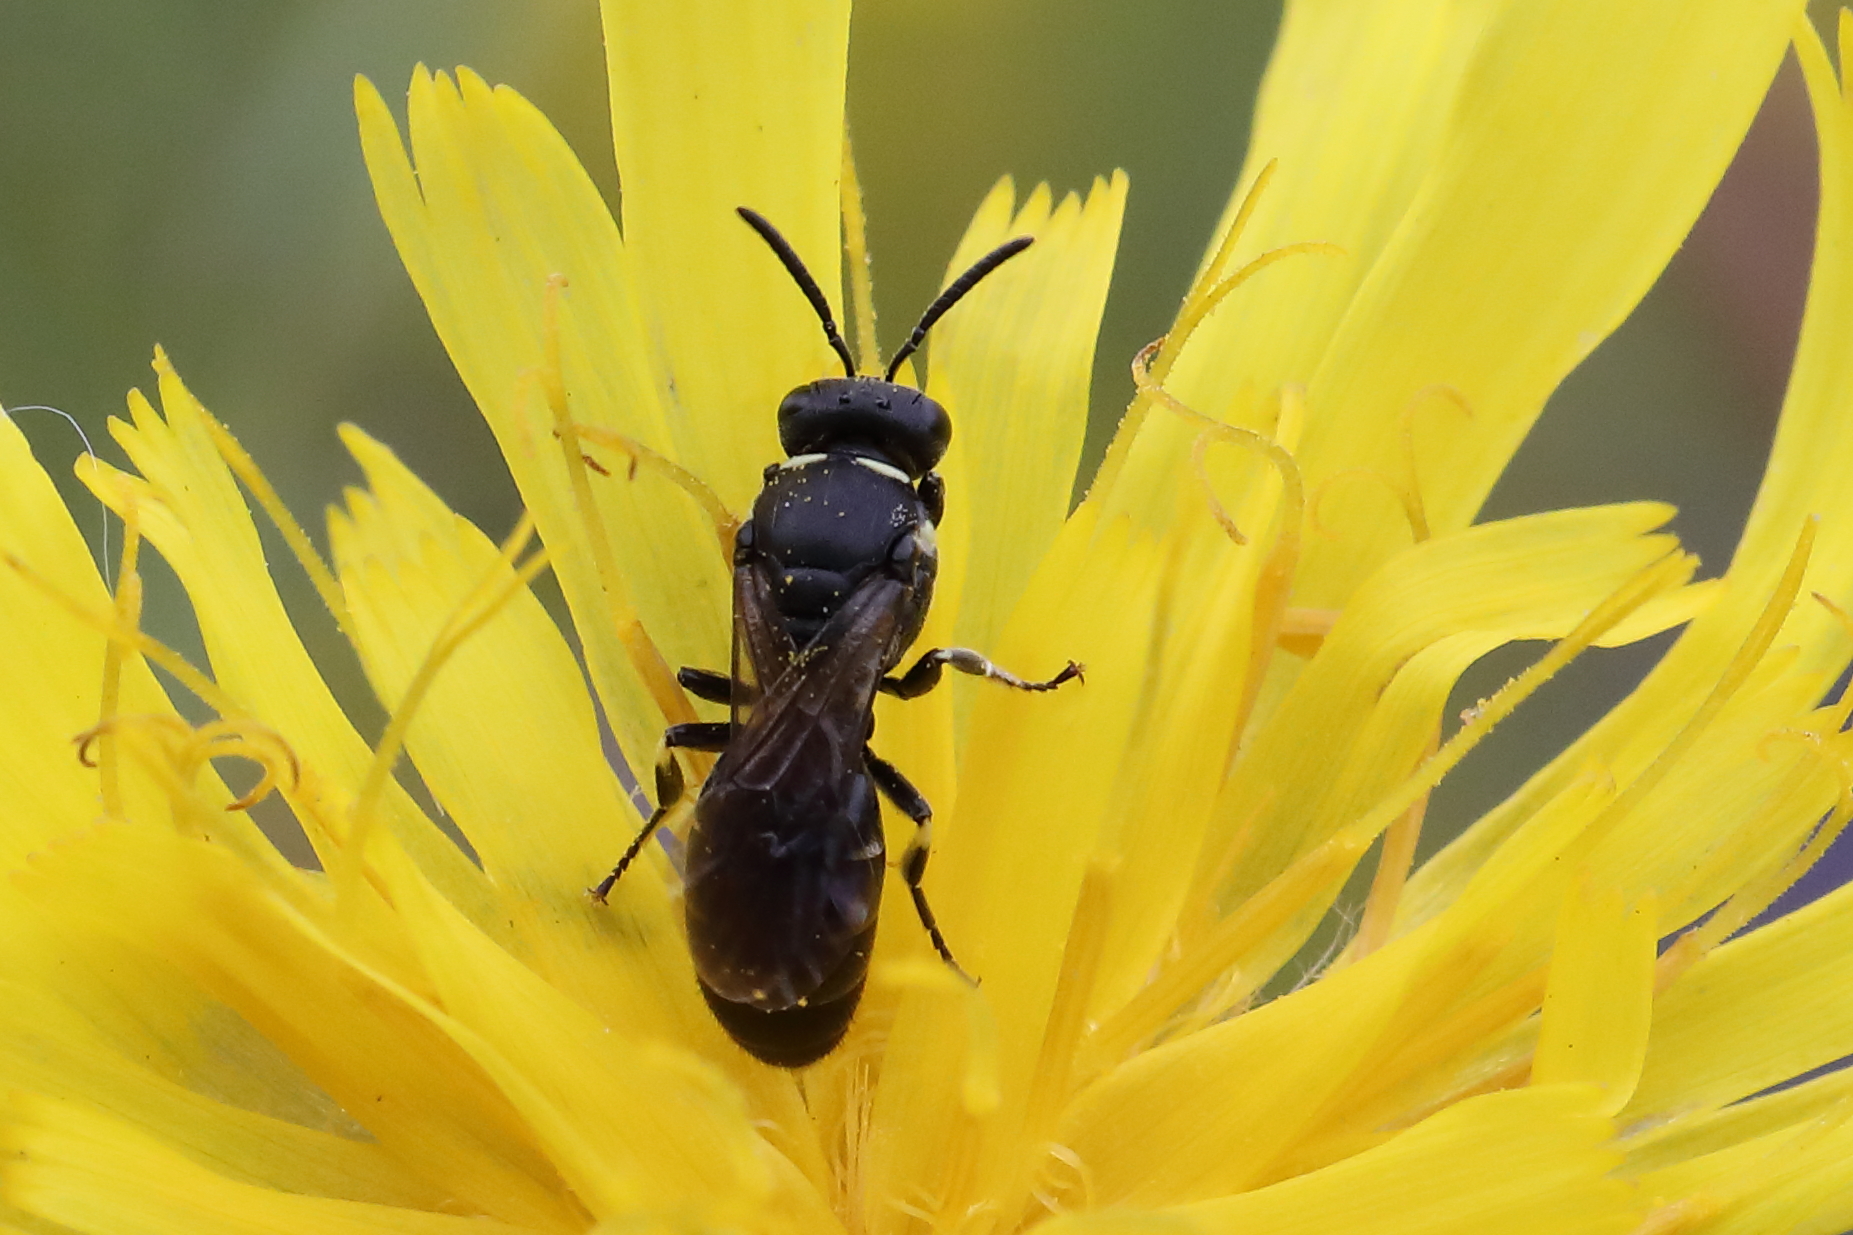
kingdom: Animalia
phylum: Arthropoda
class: Insecta
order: Hymenoptera
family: Colletidae
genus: Hylaeus
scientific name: Hylaeus confusus
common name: White-jawed yellow-face bee
